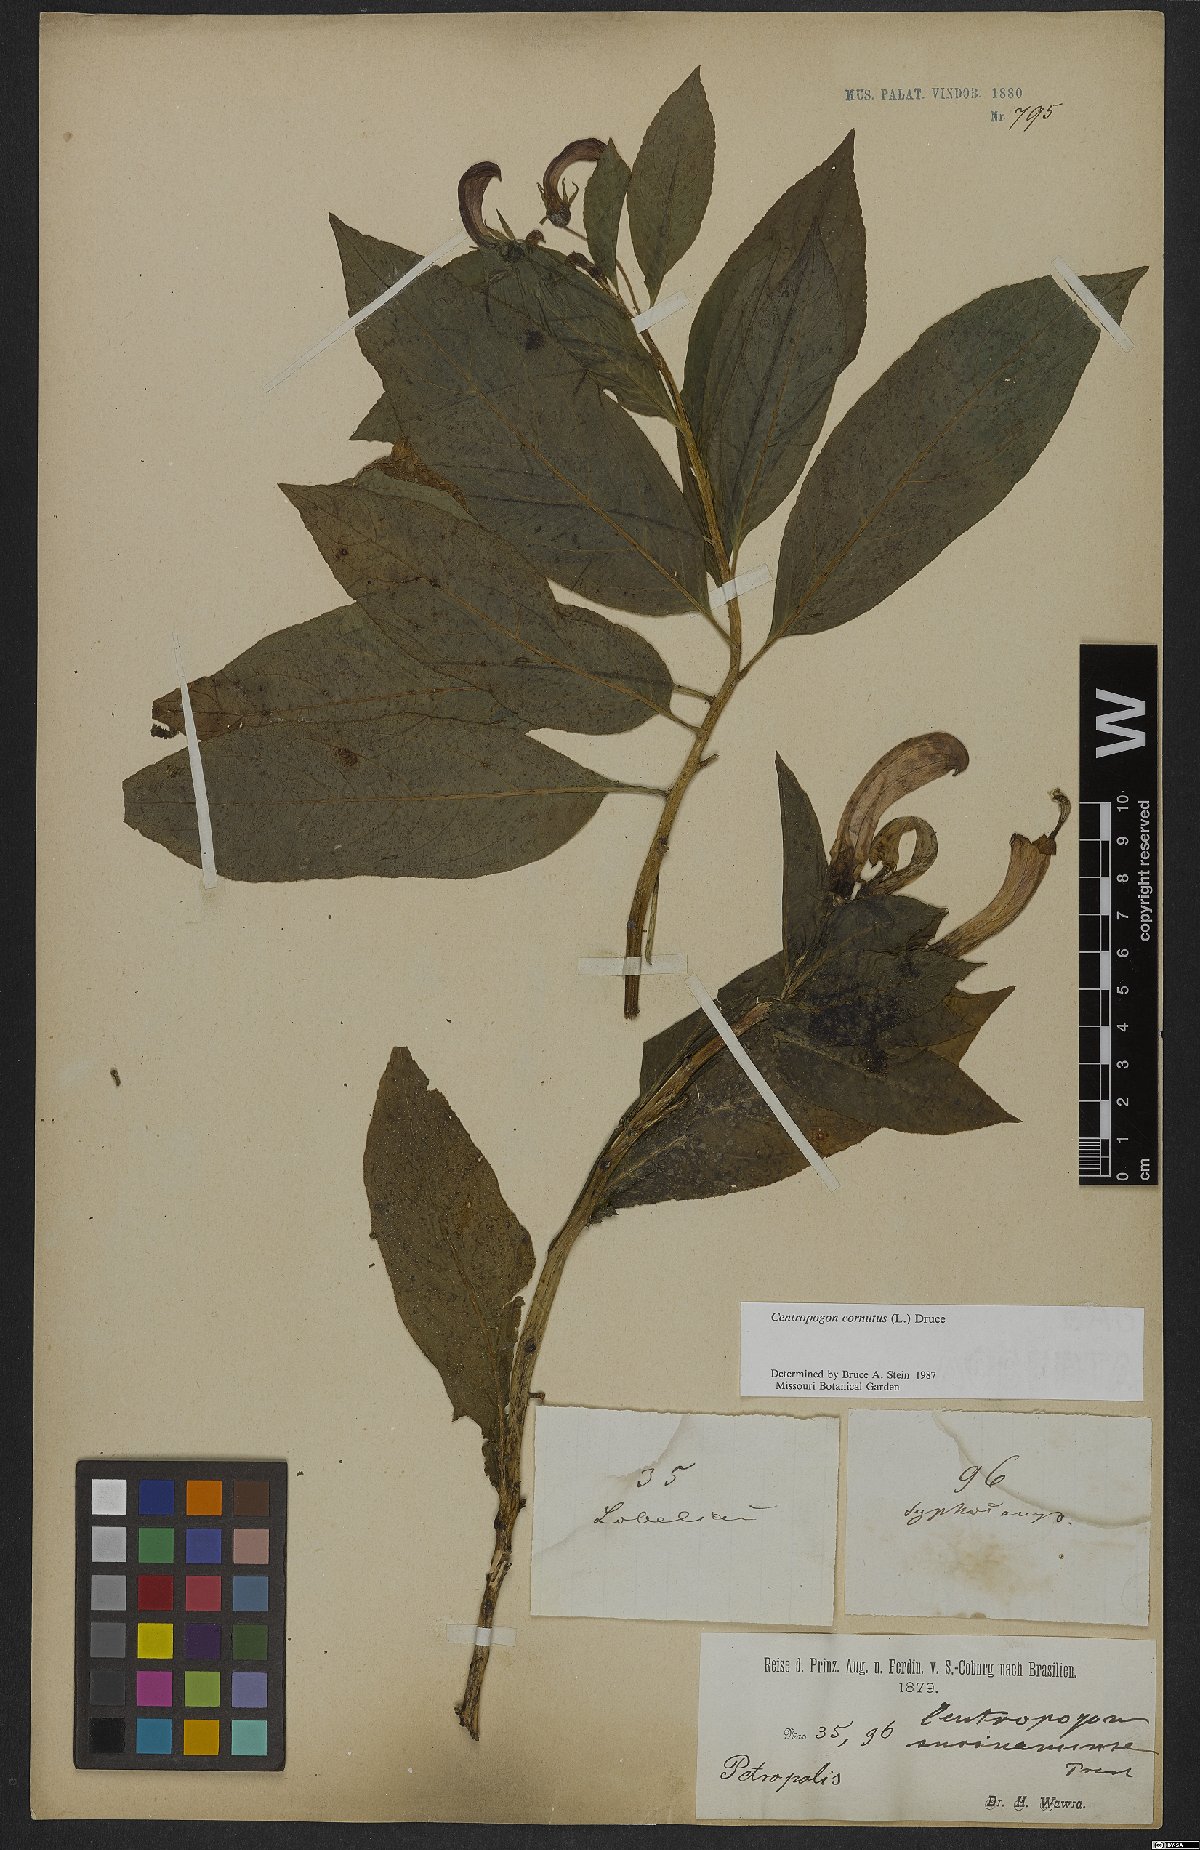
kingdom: Plantae
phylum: Tracheophyta
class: Magnoliopsida
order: Asterales
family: Campanulaceae
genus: Centropogon
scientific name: Centropogon cornutus
